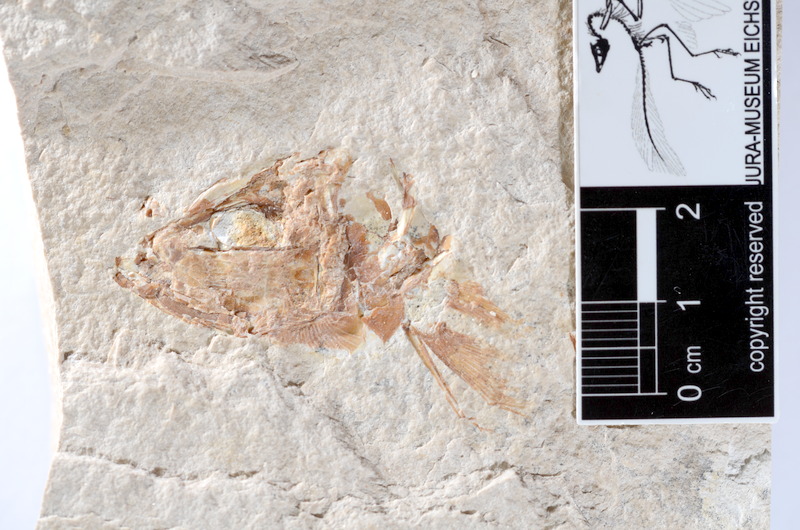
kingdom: Animalia
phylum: Chordata
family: Ascalaboidae
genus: Tharsis
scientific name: Tharsis dubius
